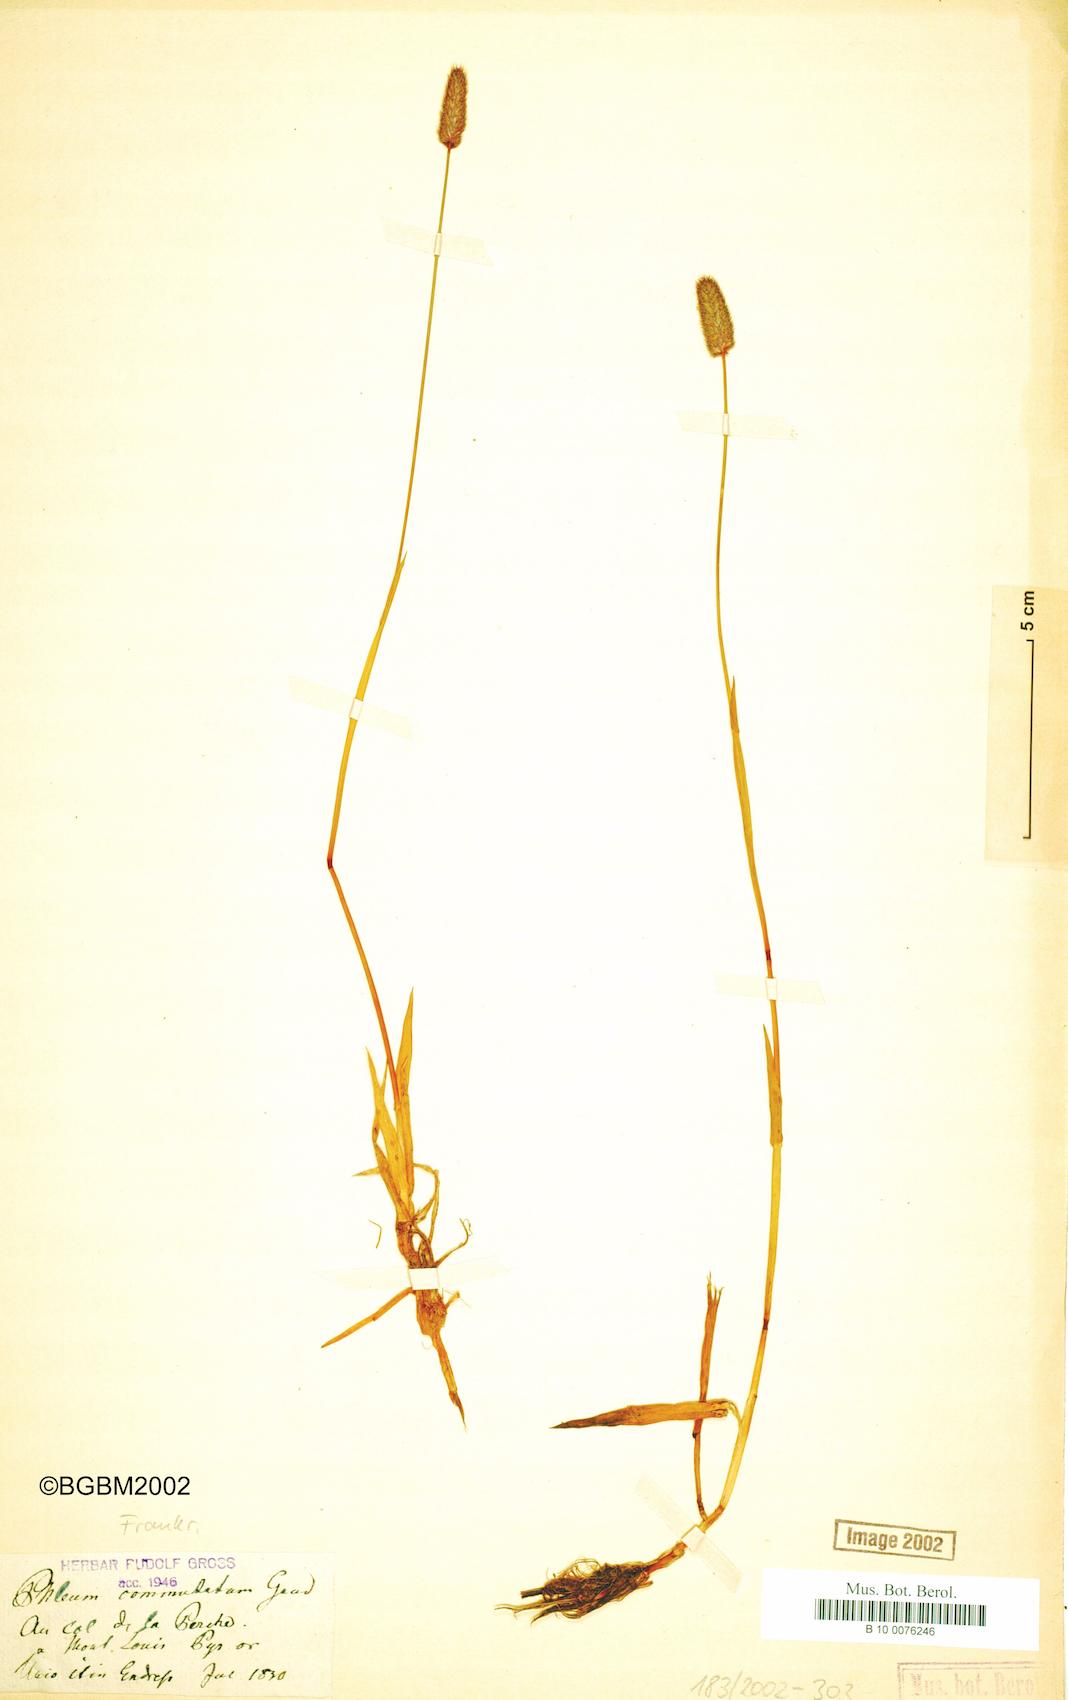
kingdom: Plantae
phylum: Tracheophyta
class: Liliopsida
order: Poales
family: Poaceae
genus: Phleum
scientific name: Phleum alpinum
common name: Alpine cat's-tail
